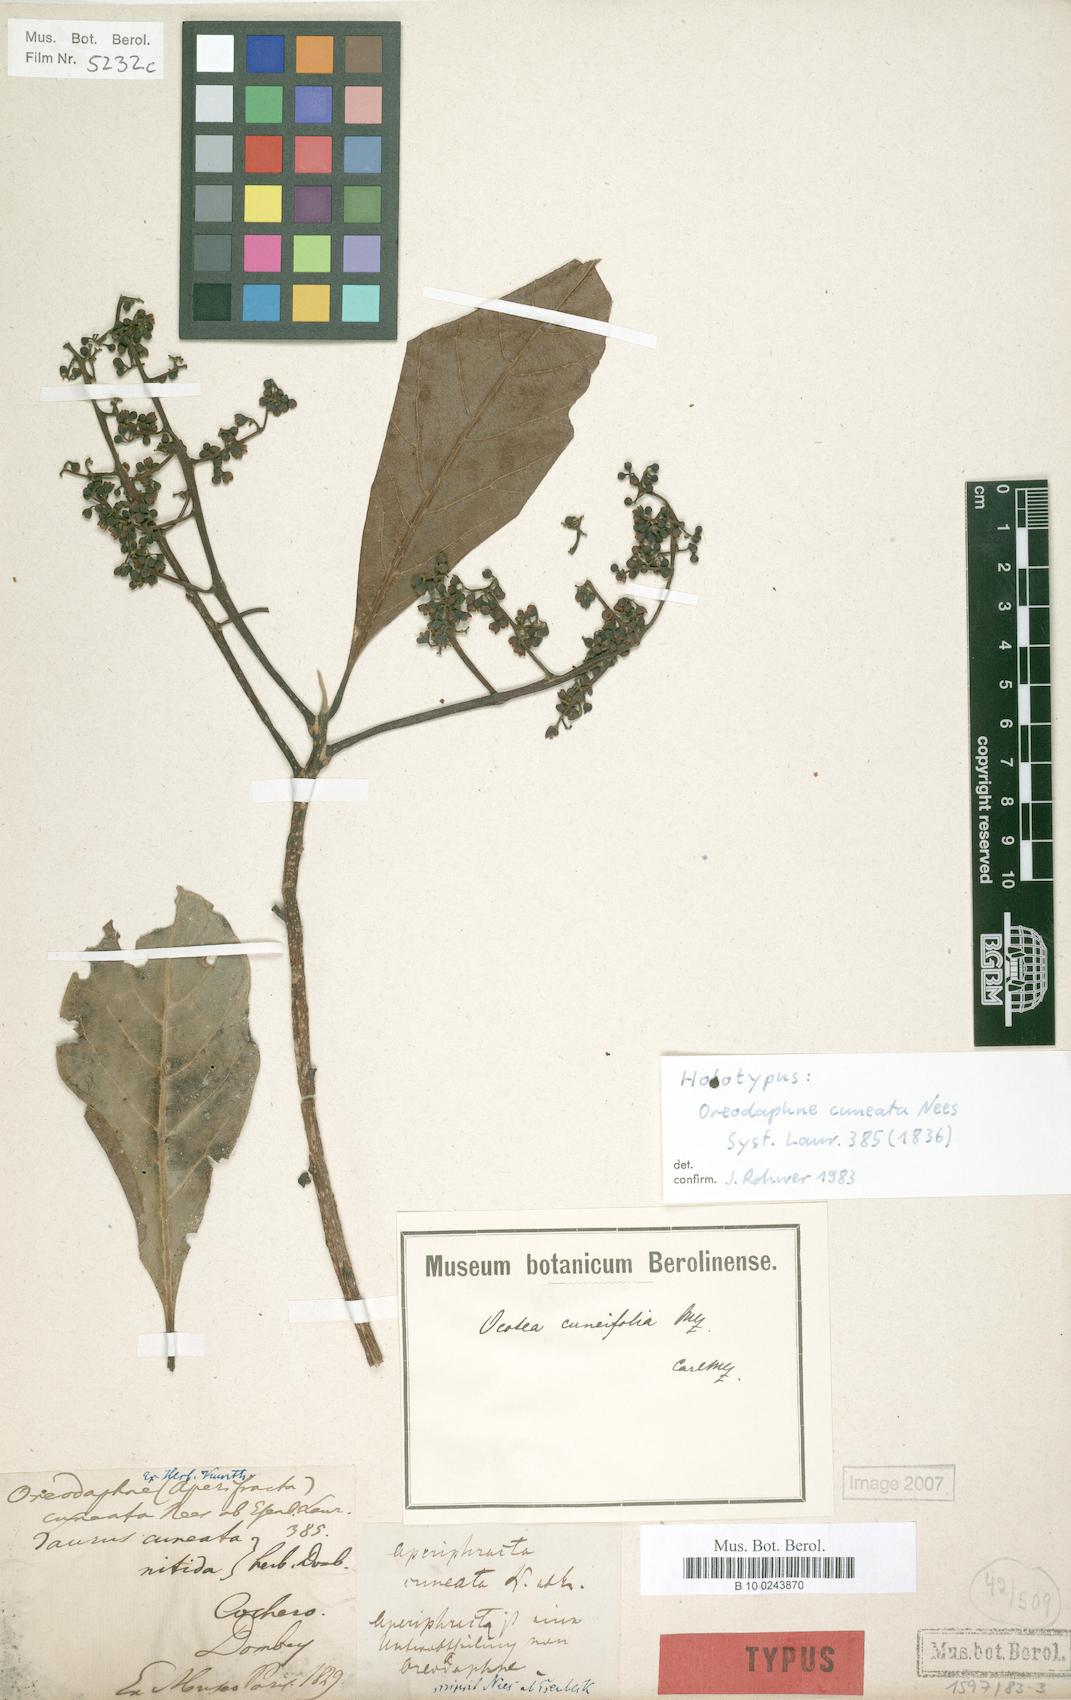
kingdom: Plantae
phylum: Tracheophyta
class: Magnoliopsida
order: Laurales
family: Lauraceae
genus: Ocotea
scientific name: Ocotea cuneifolia
